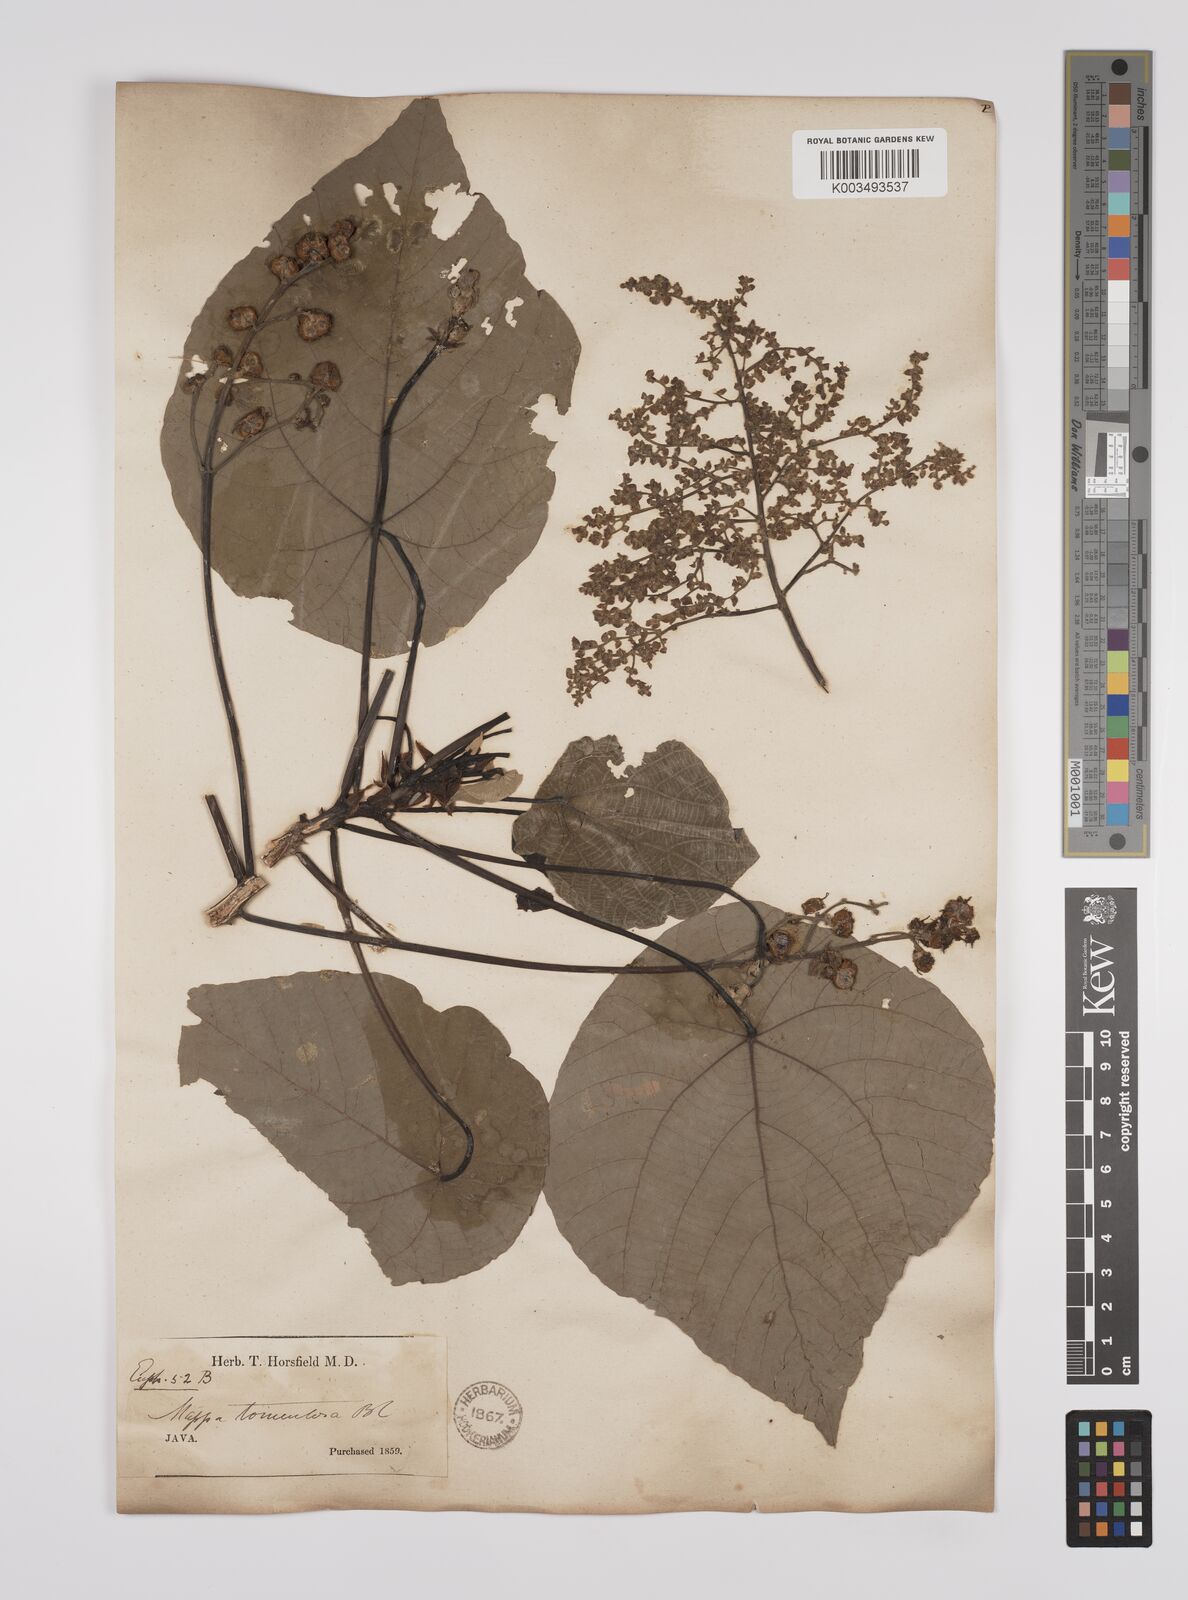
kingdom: Plantae
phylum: Tracheophyta
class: Magnoliopsida
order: Malpighiales
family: Euphorbiaceae
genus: Macaranga
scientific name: Macaranga tanarius
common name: Parasol leaf tree
